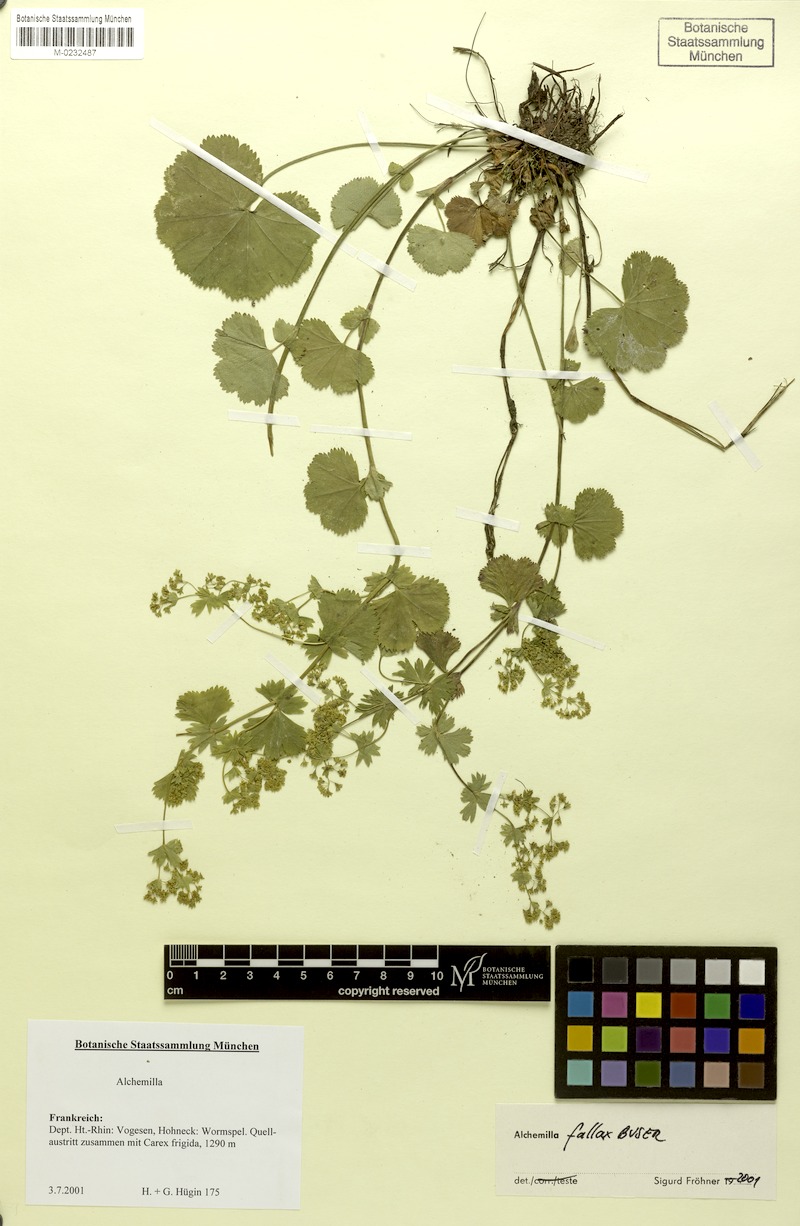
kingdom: Plantae
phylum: Tracheophyta
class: Magnoliopsida
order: Rosales
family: Rosaceae
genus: Alchemilla
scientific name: Alchemilla fallax
